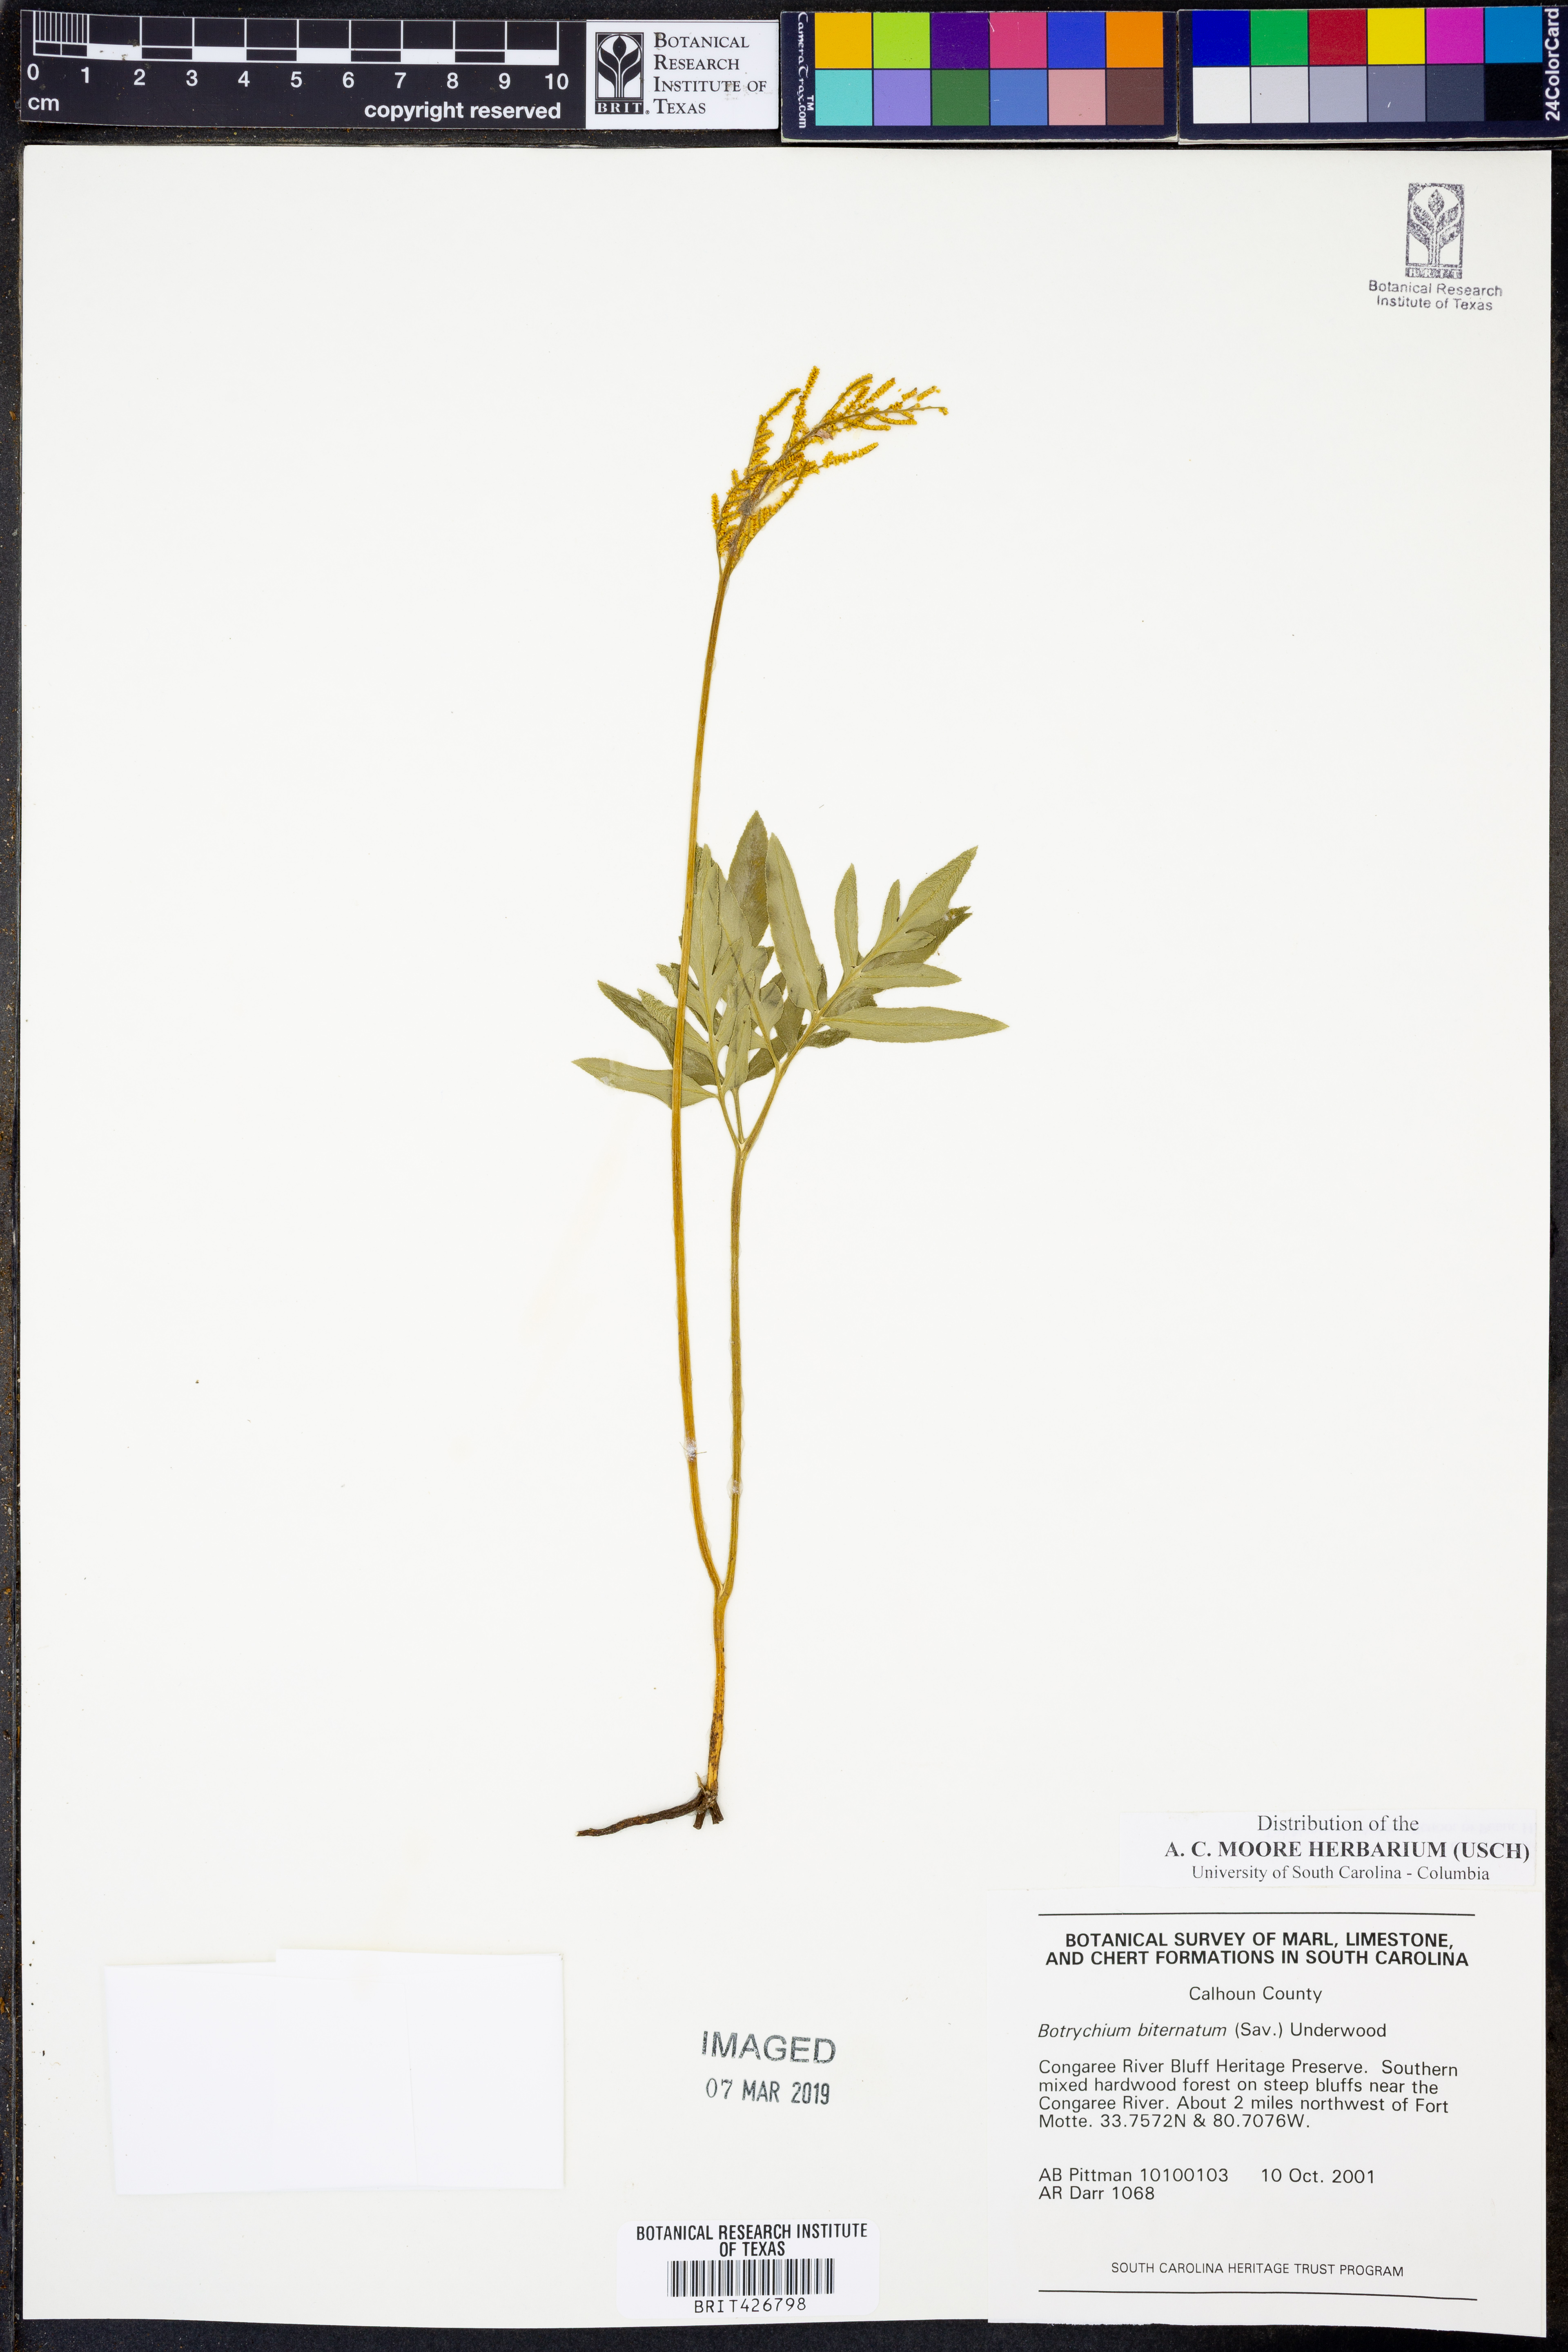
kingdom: Plantae
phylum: Tracheophyta
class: Polypodiopsida
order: Ophioglossales
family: Ophioglossaceae
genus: Sceptridium
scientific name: Sceptridium biternatum
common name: Sparse-lobed grapefern
